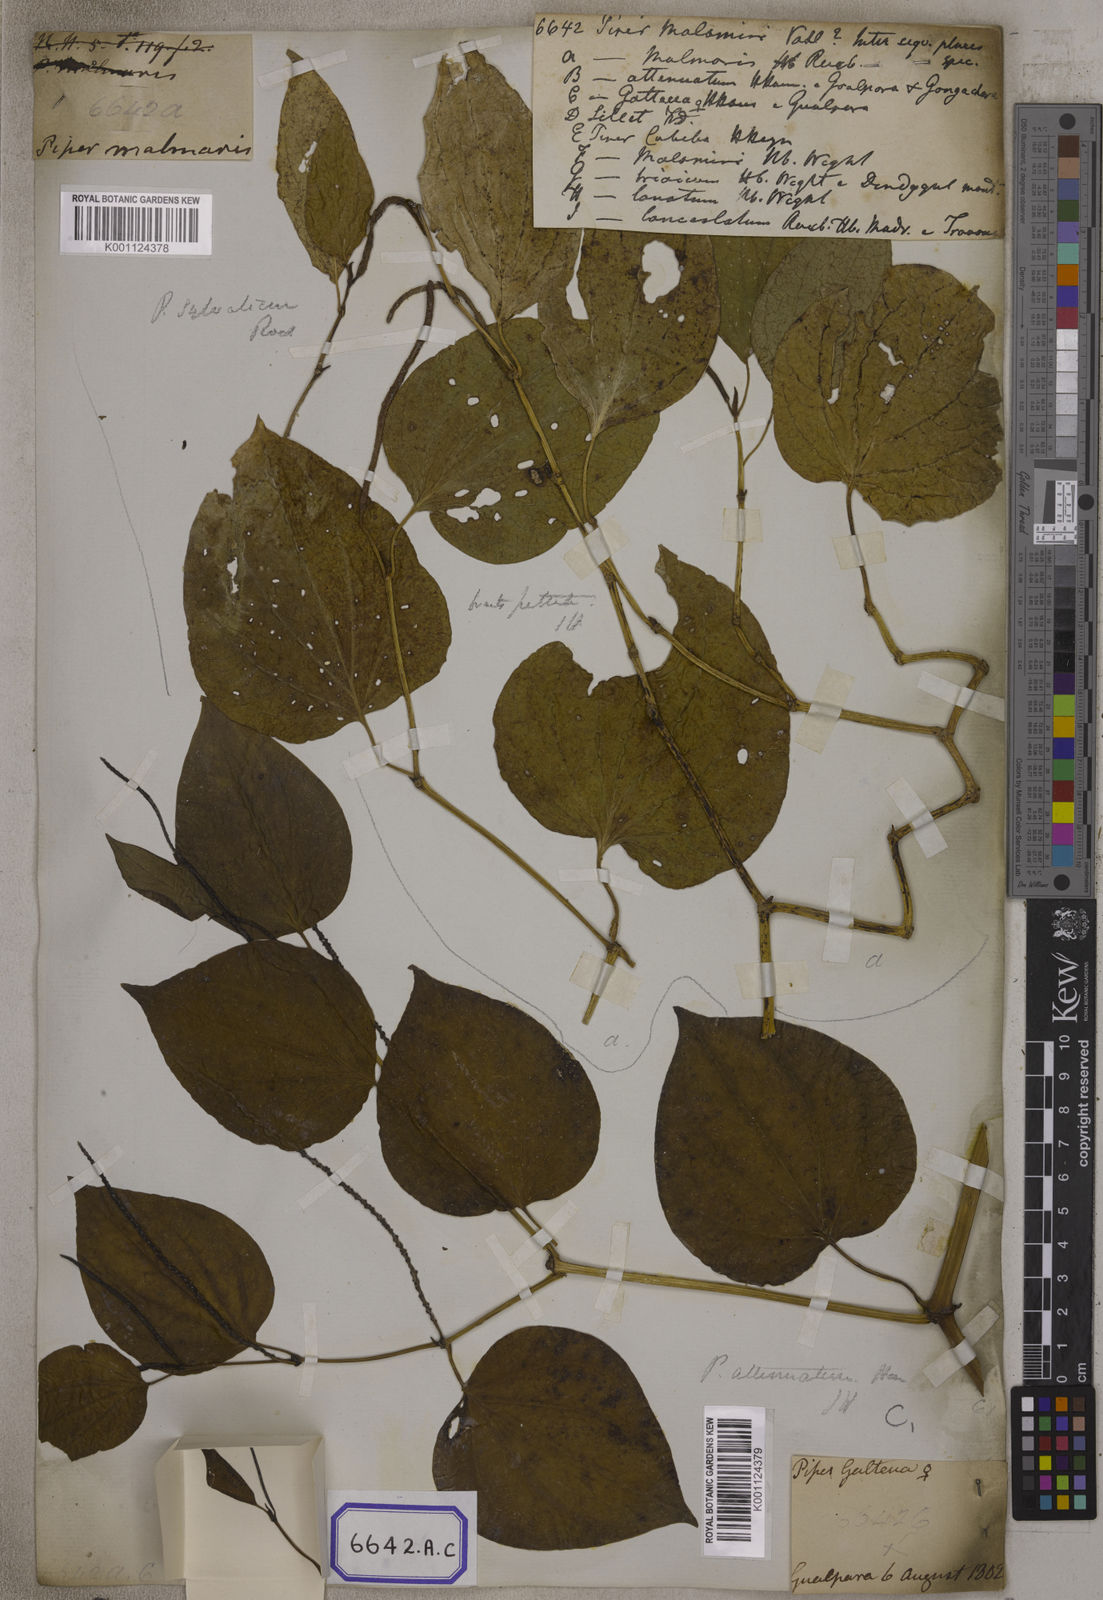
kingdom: Plantae
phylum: Tracheophyta
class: Magnoliopsida
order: Piperales
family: Piperaceae
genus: Piper
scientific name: Piper
